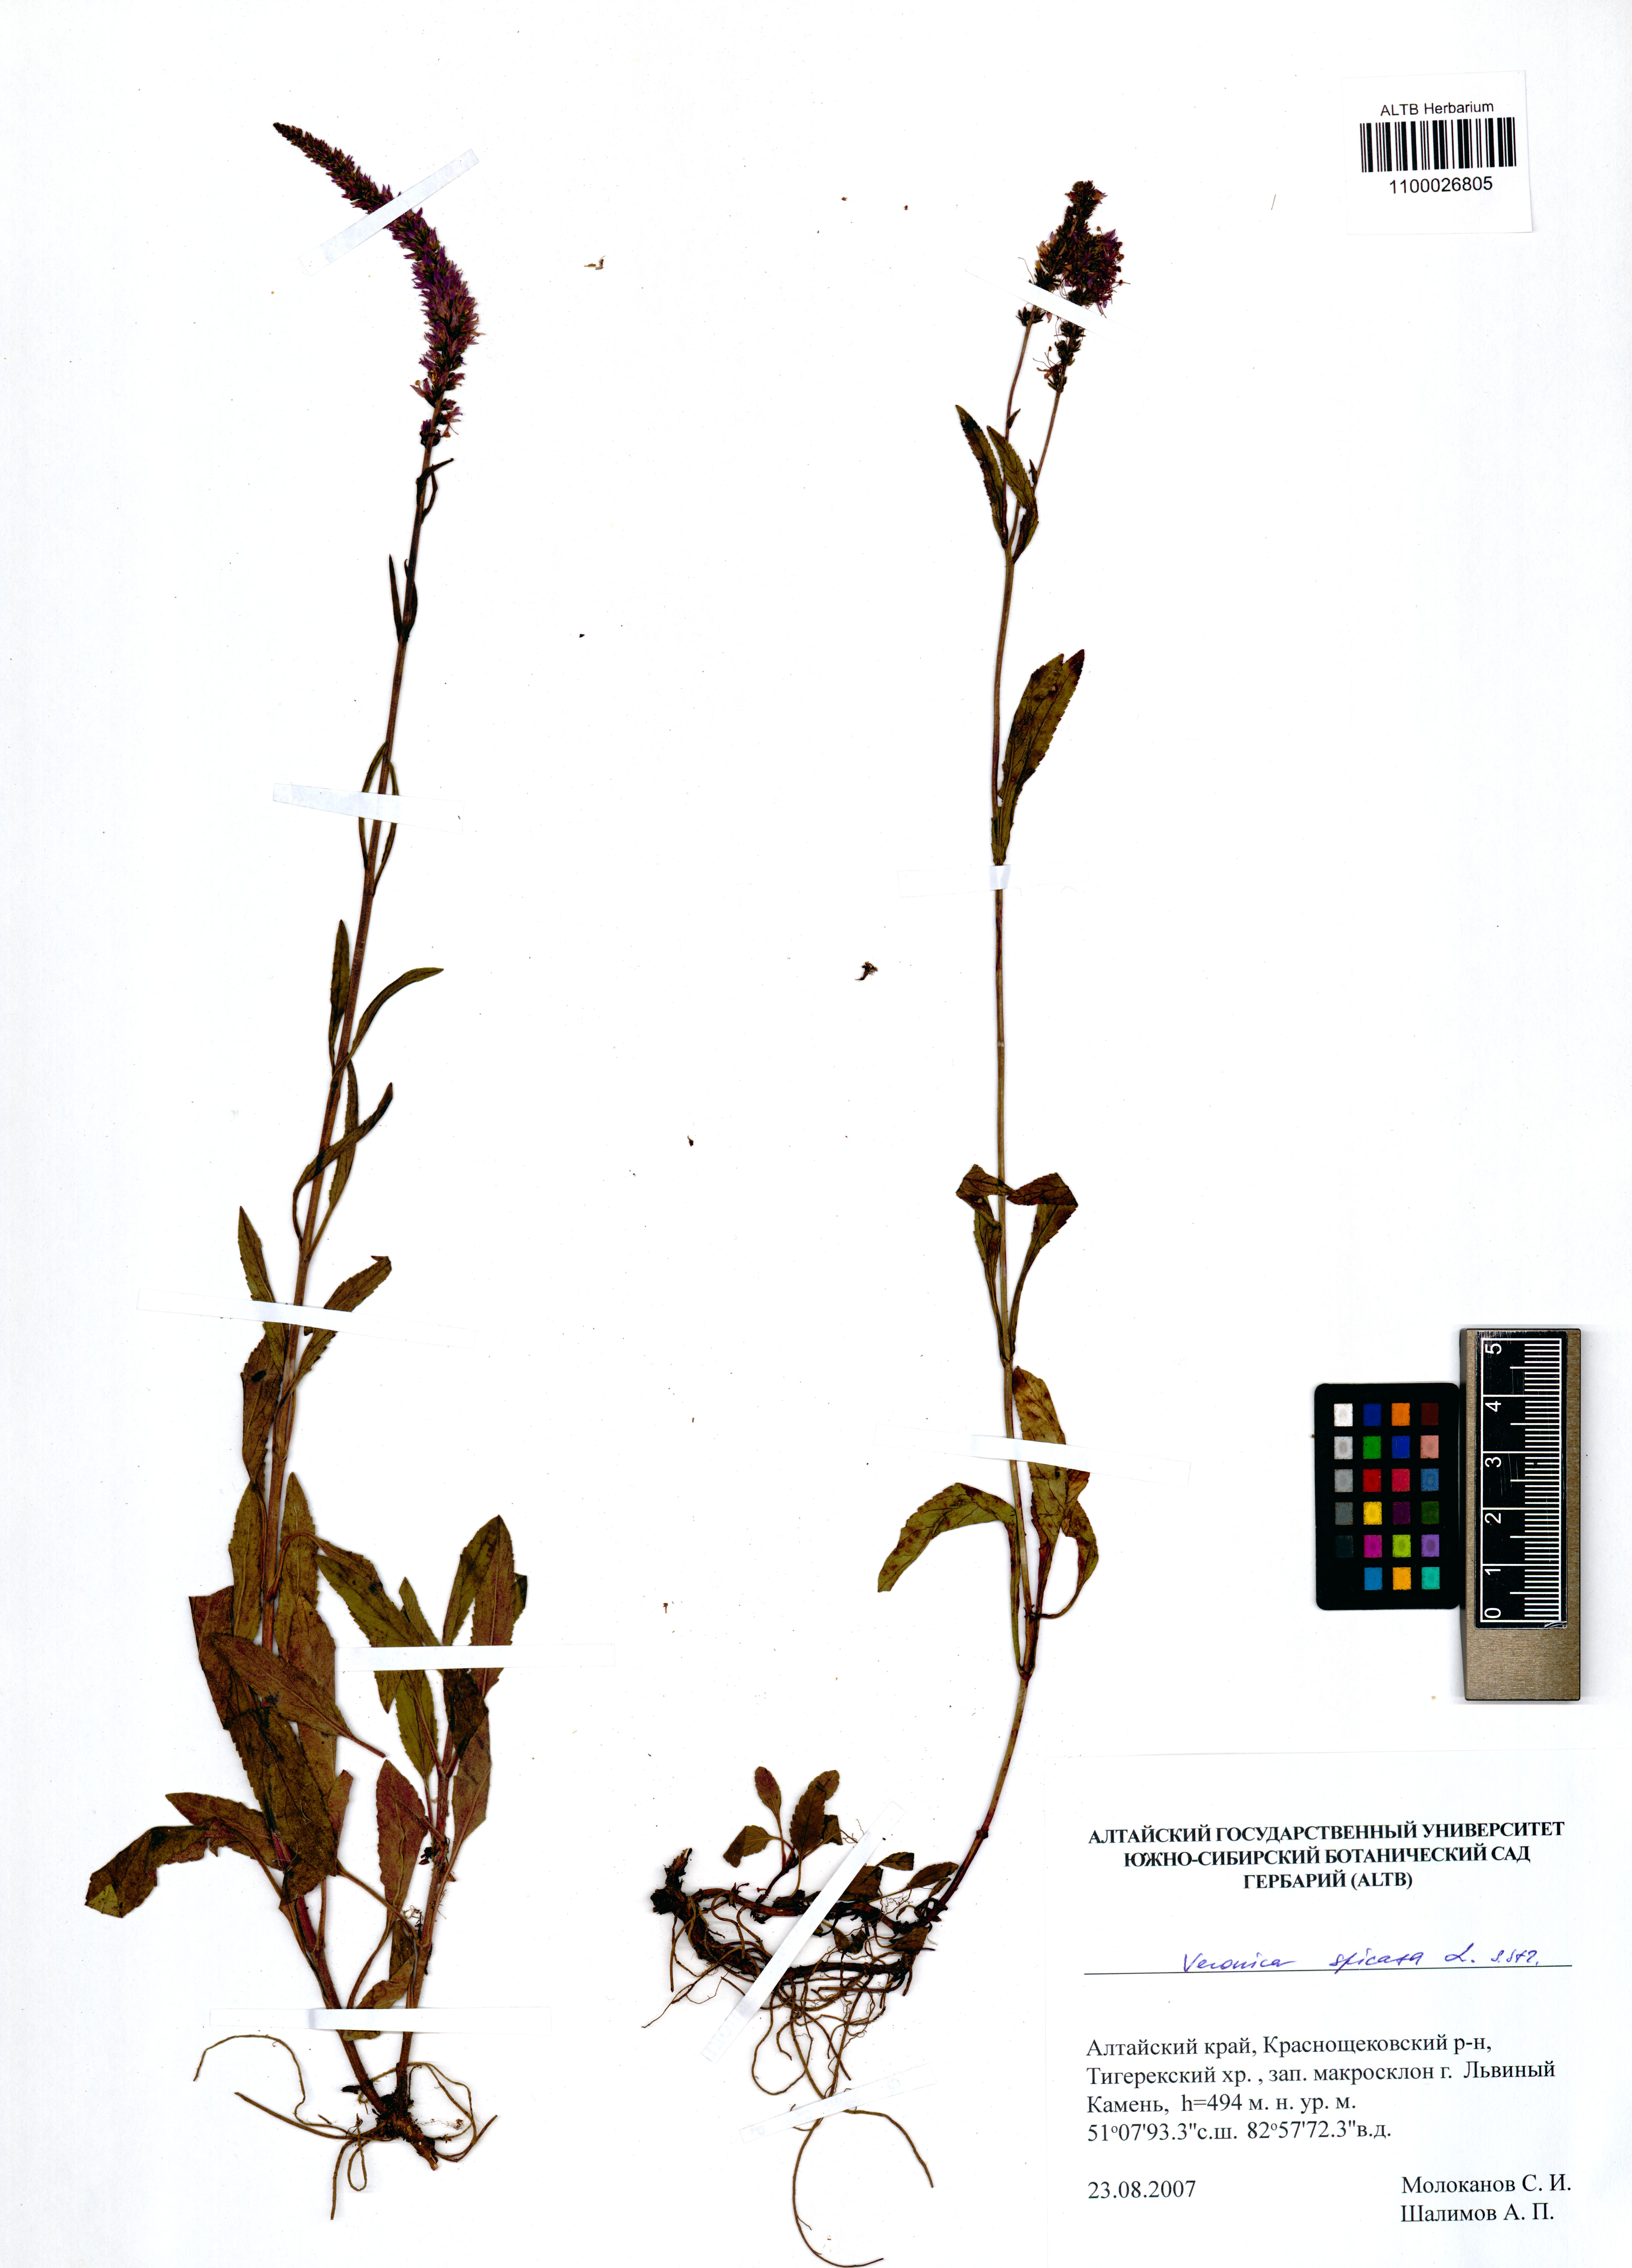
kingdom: Plantae
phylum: Tracheophyta
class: Magnoliopsida
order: Lamiales
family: Plantaginaceae
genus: Veronica
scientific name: Veronica spicata
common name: Spiked speedwell
